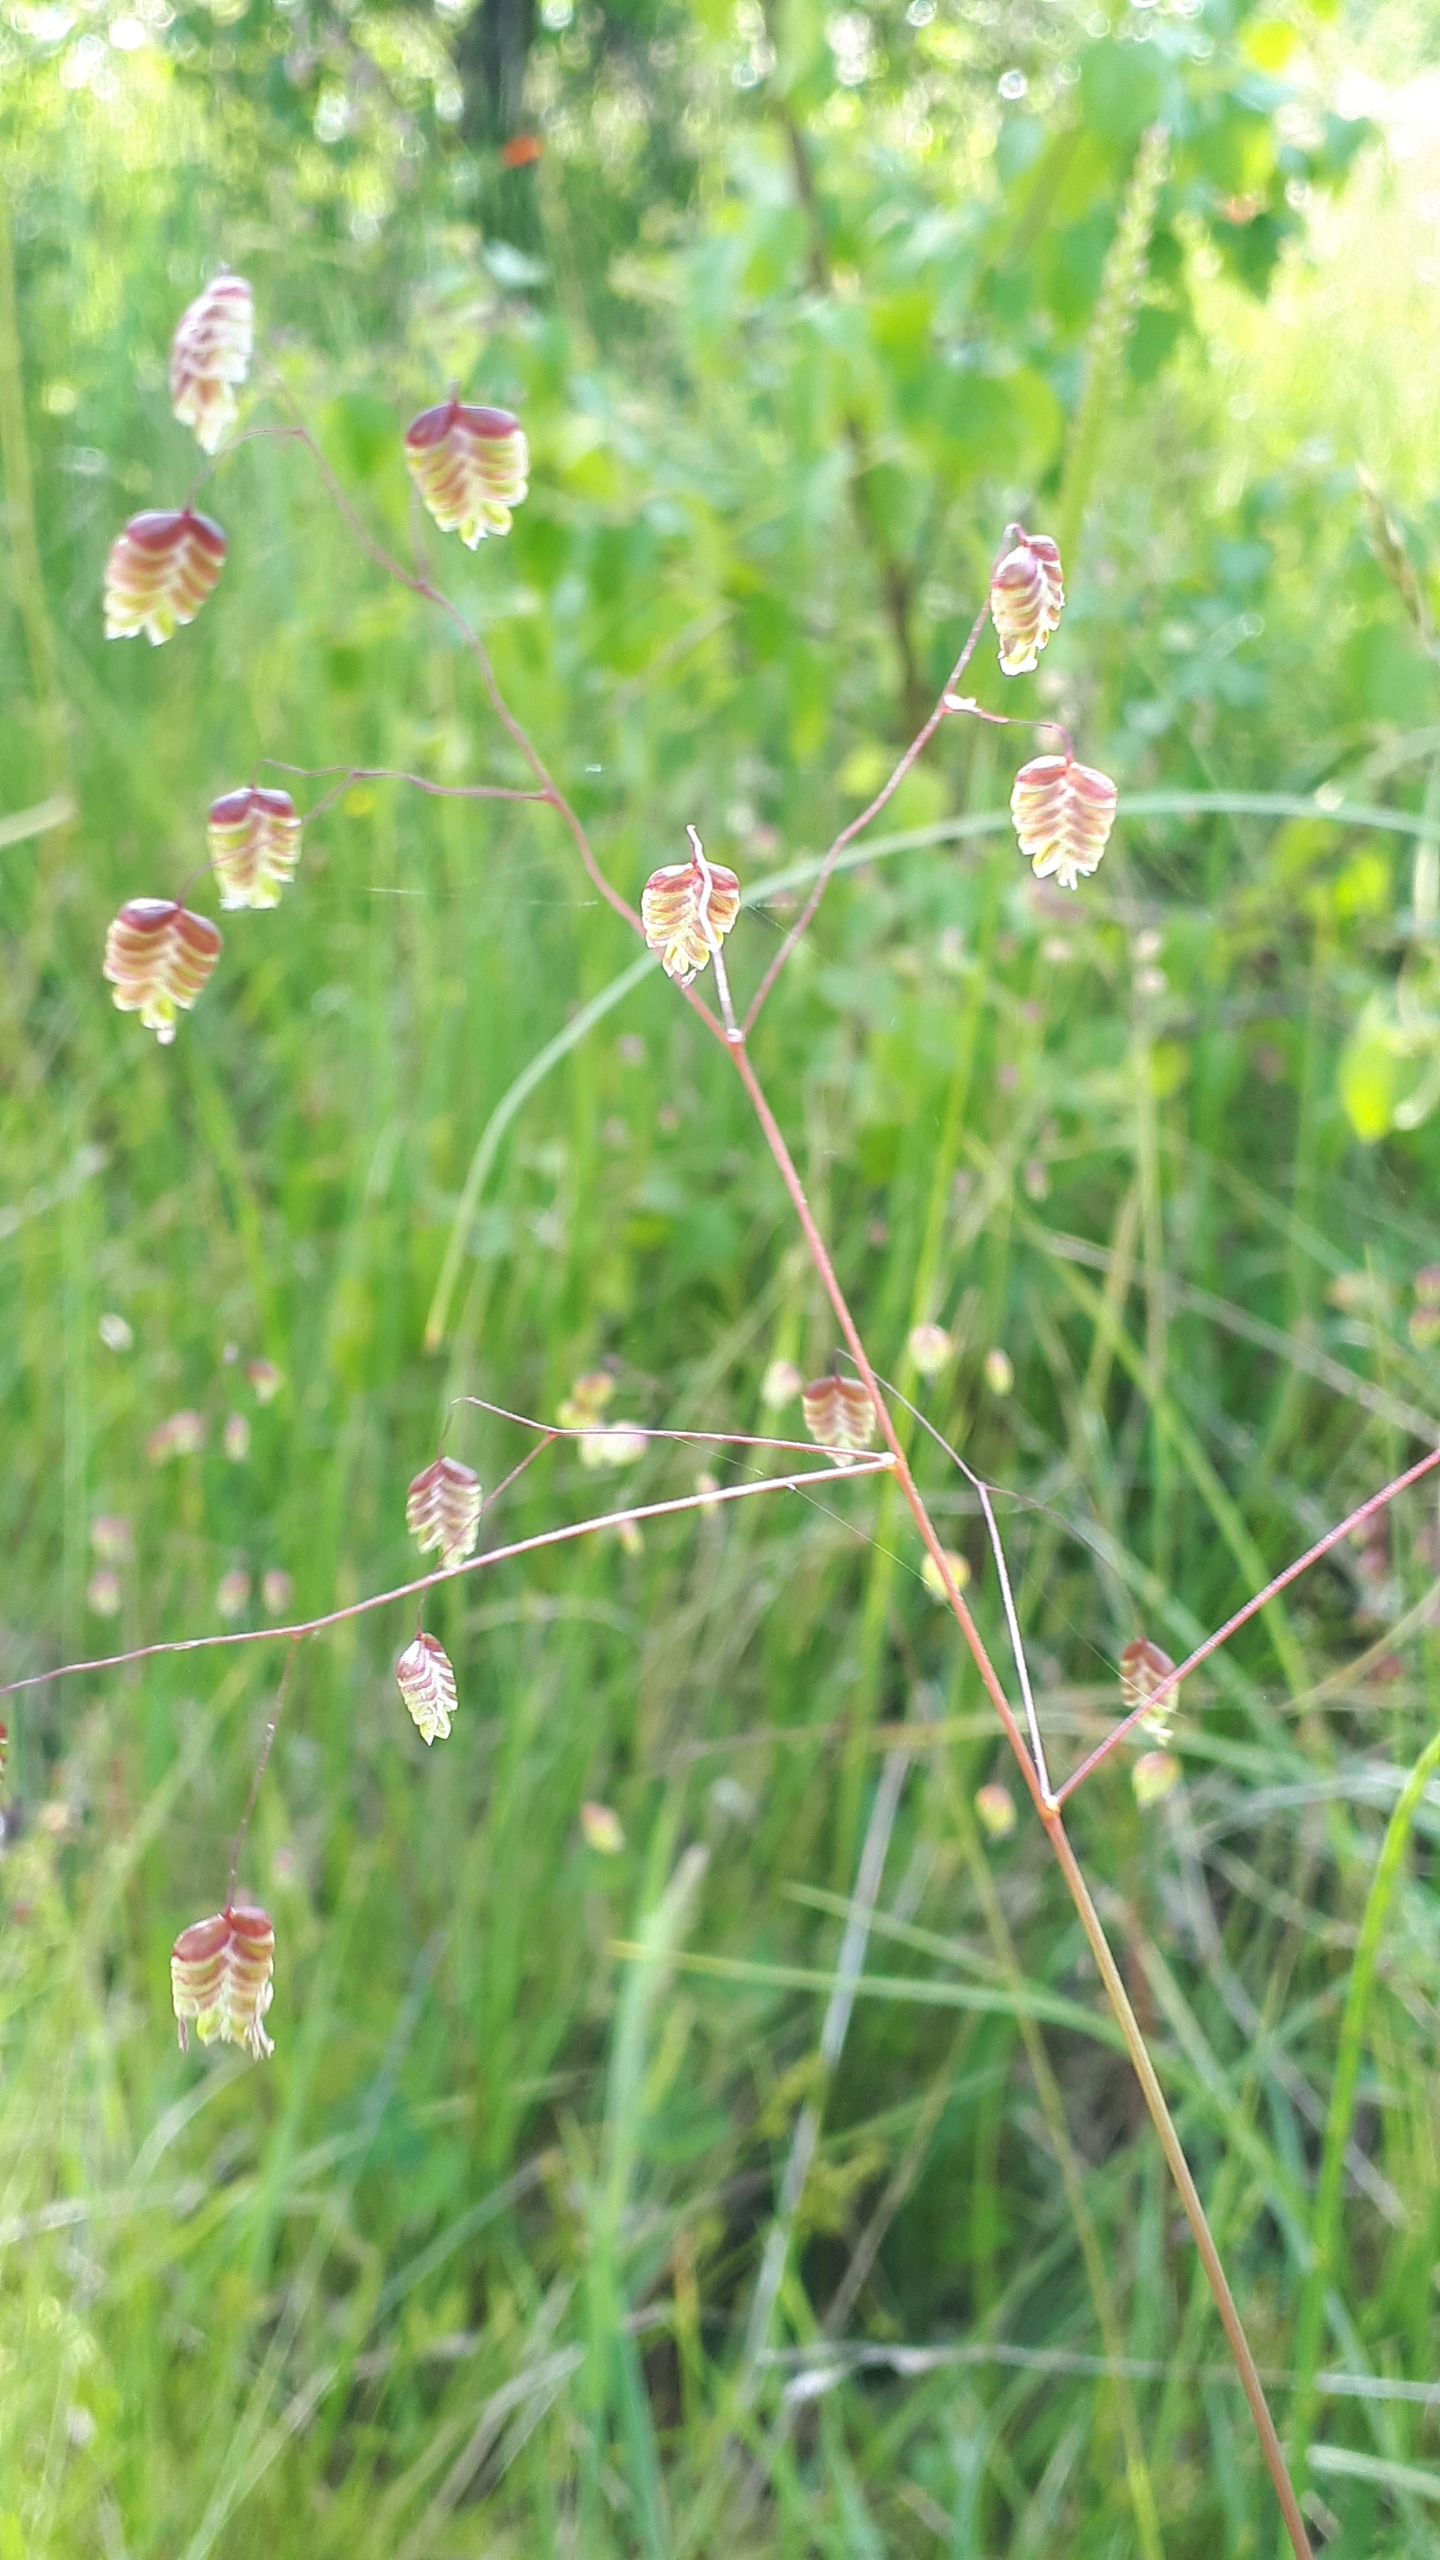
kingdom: Plantae
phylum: Tracheophyta
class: Liliopsida
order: Poales
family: Poaceae
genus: Briza
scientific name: Briza media
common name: Hjertegræs
